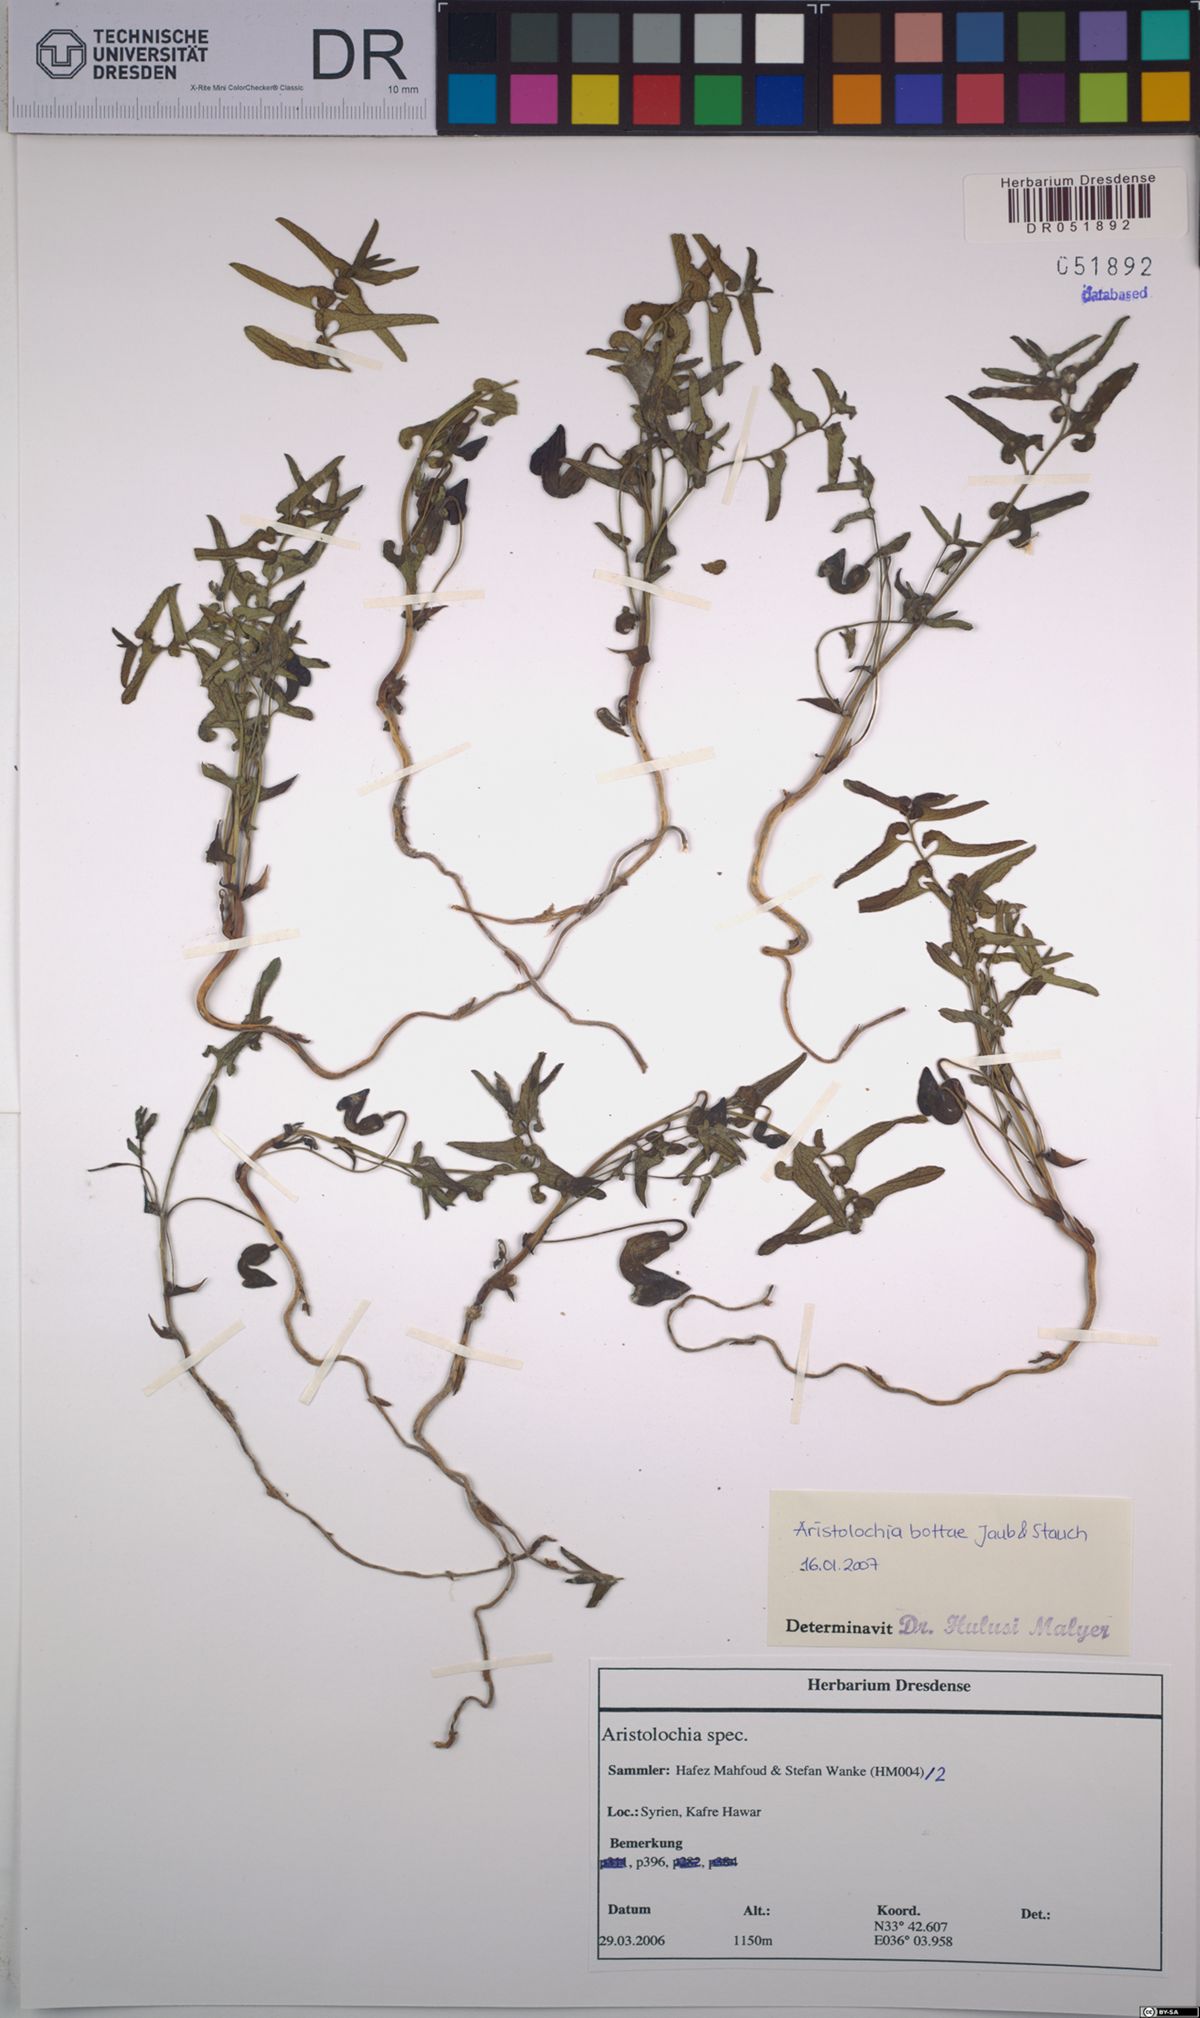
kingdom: Plantae
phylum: Tracheophyta
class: Magnoliopsida
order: Piperales
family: Aristolochiaceae
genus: Aristolochia
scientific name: Aristolochia bottae
